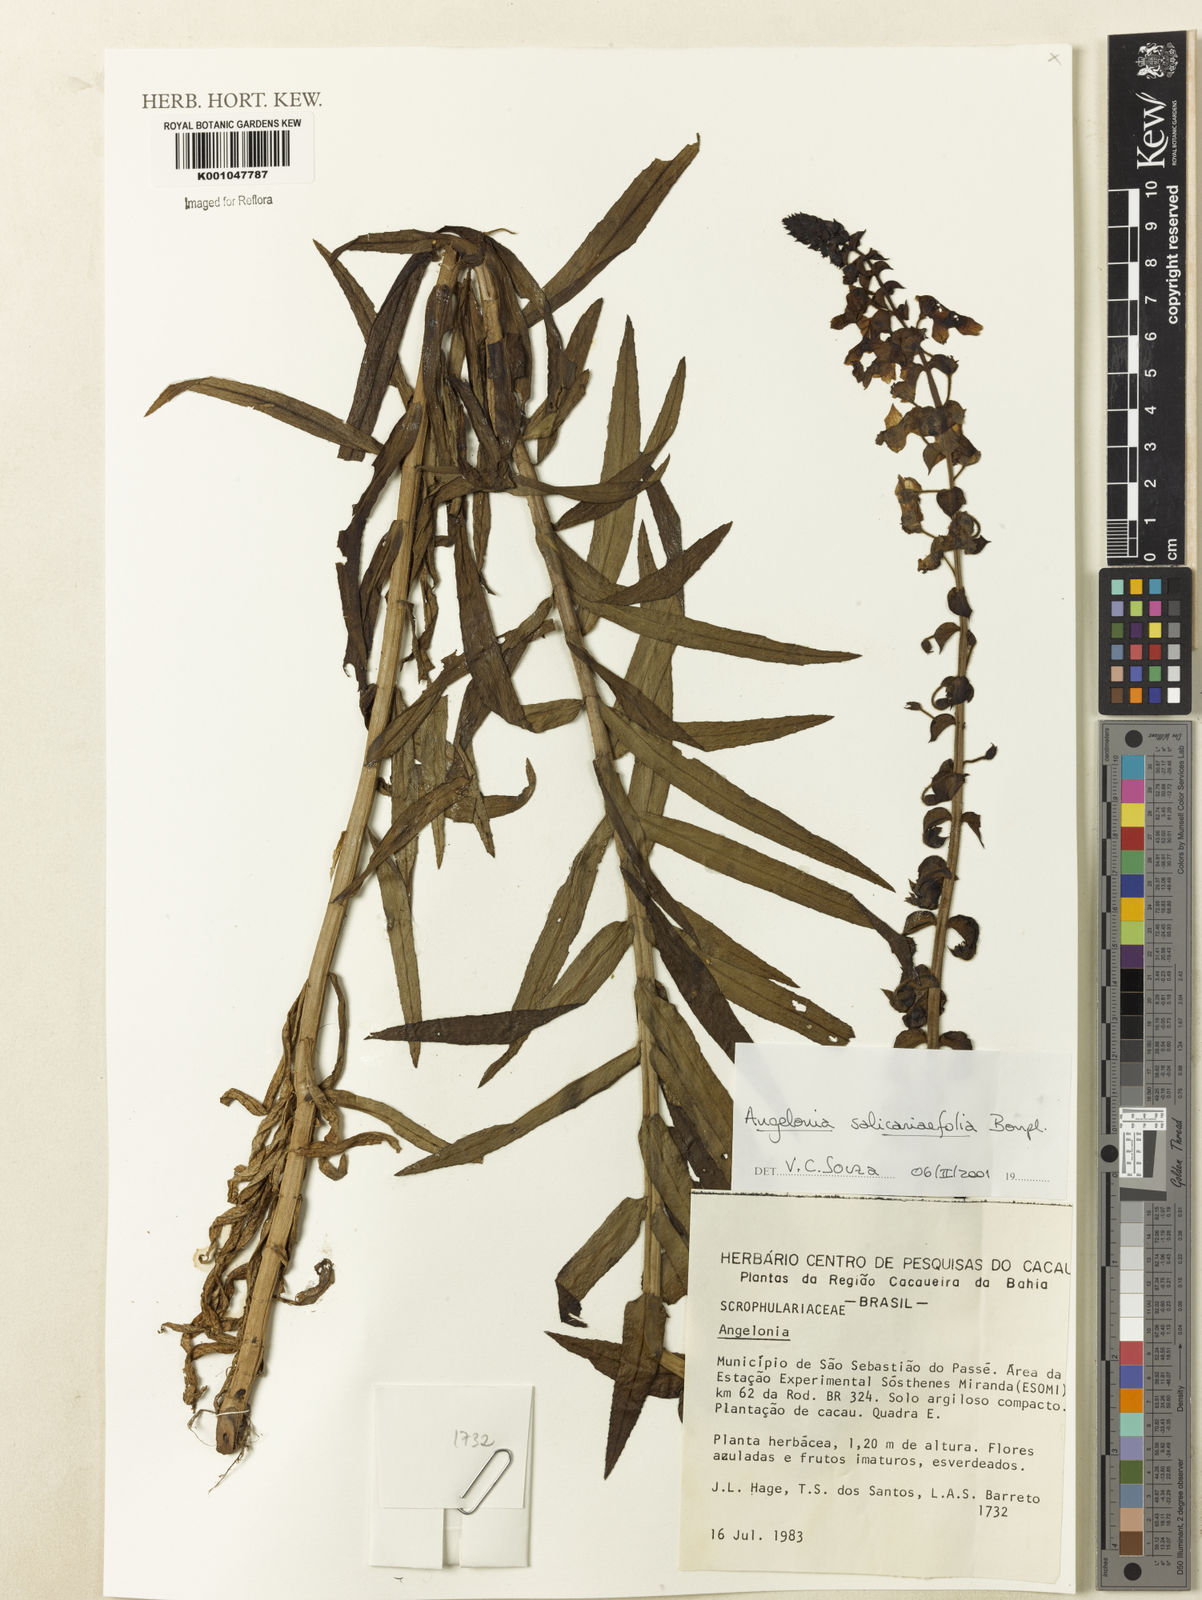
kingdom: Plantae
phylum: Tracheophyta
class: Magnoliopsida
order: Lamiales
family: Plantaginaceae
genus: Angelonia
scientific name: Angelonia salicariifolia
